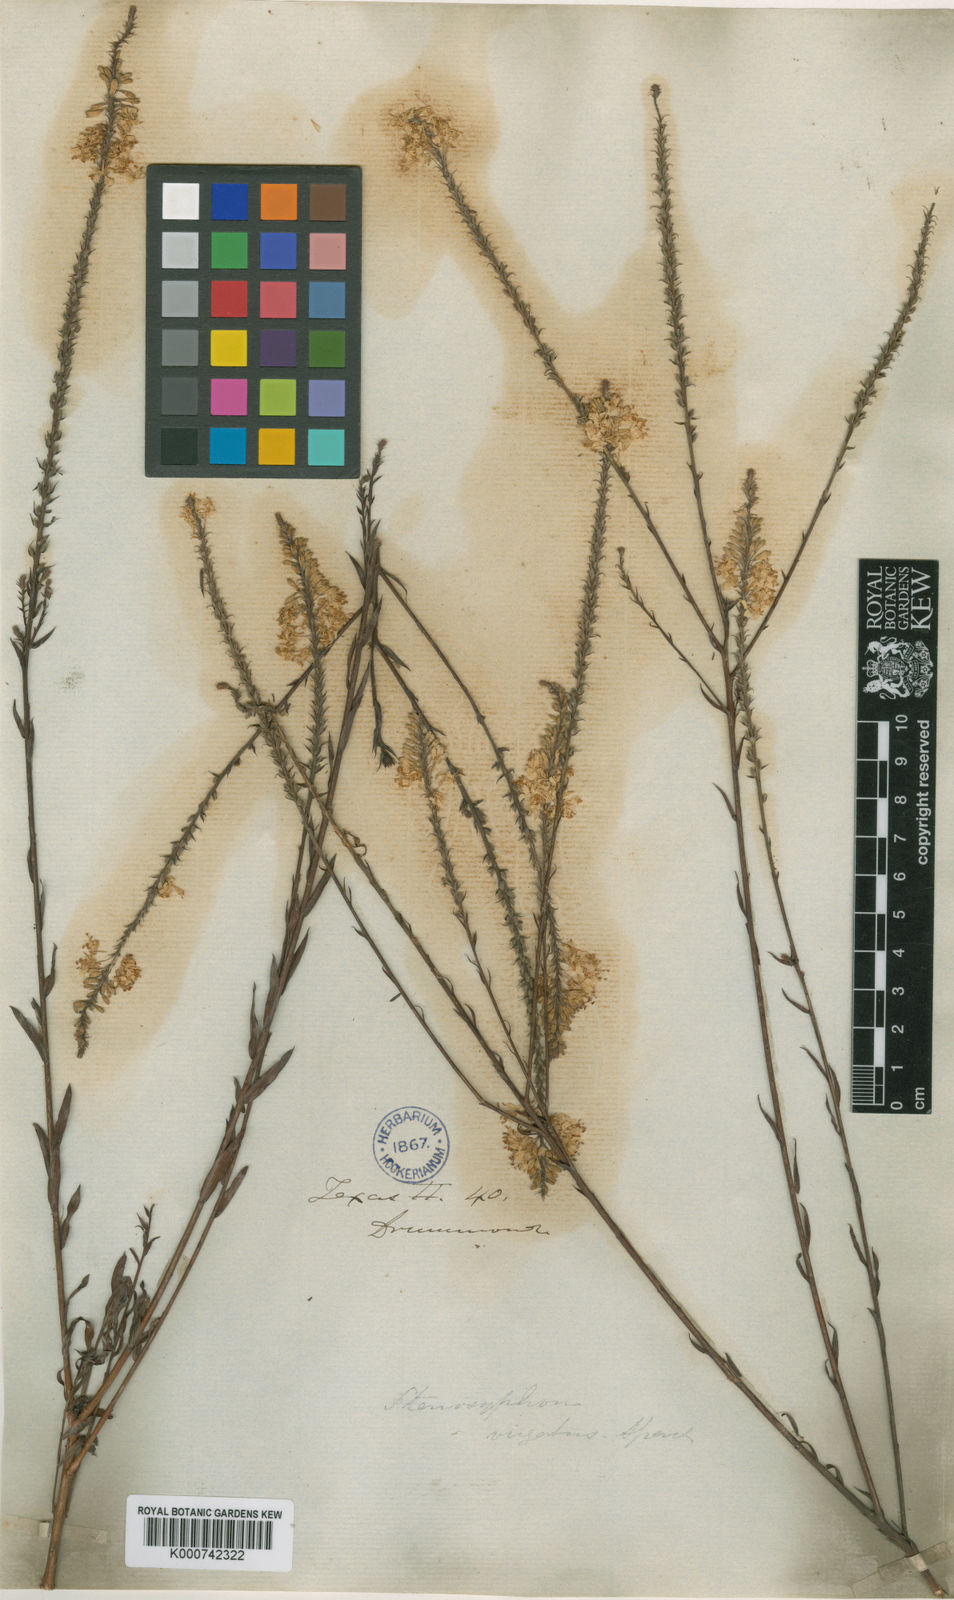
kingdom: Plantae
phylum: Tracheophyta
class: Magnoliopsida
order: Myrtales
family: Onagraceae
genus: Oenothera
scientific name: Oenothera glaucifolia
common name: False gaura
